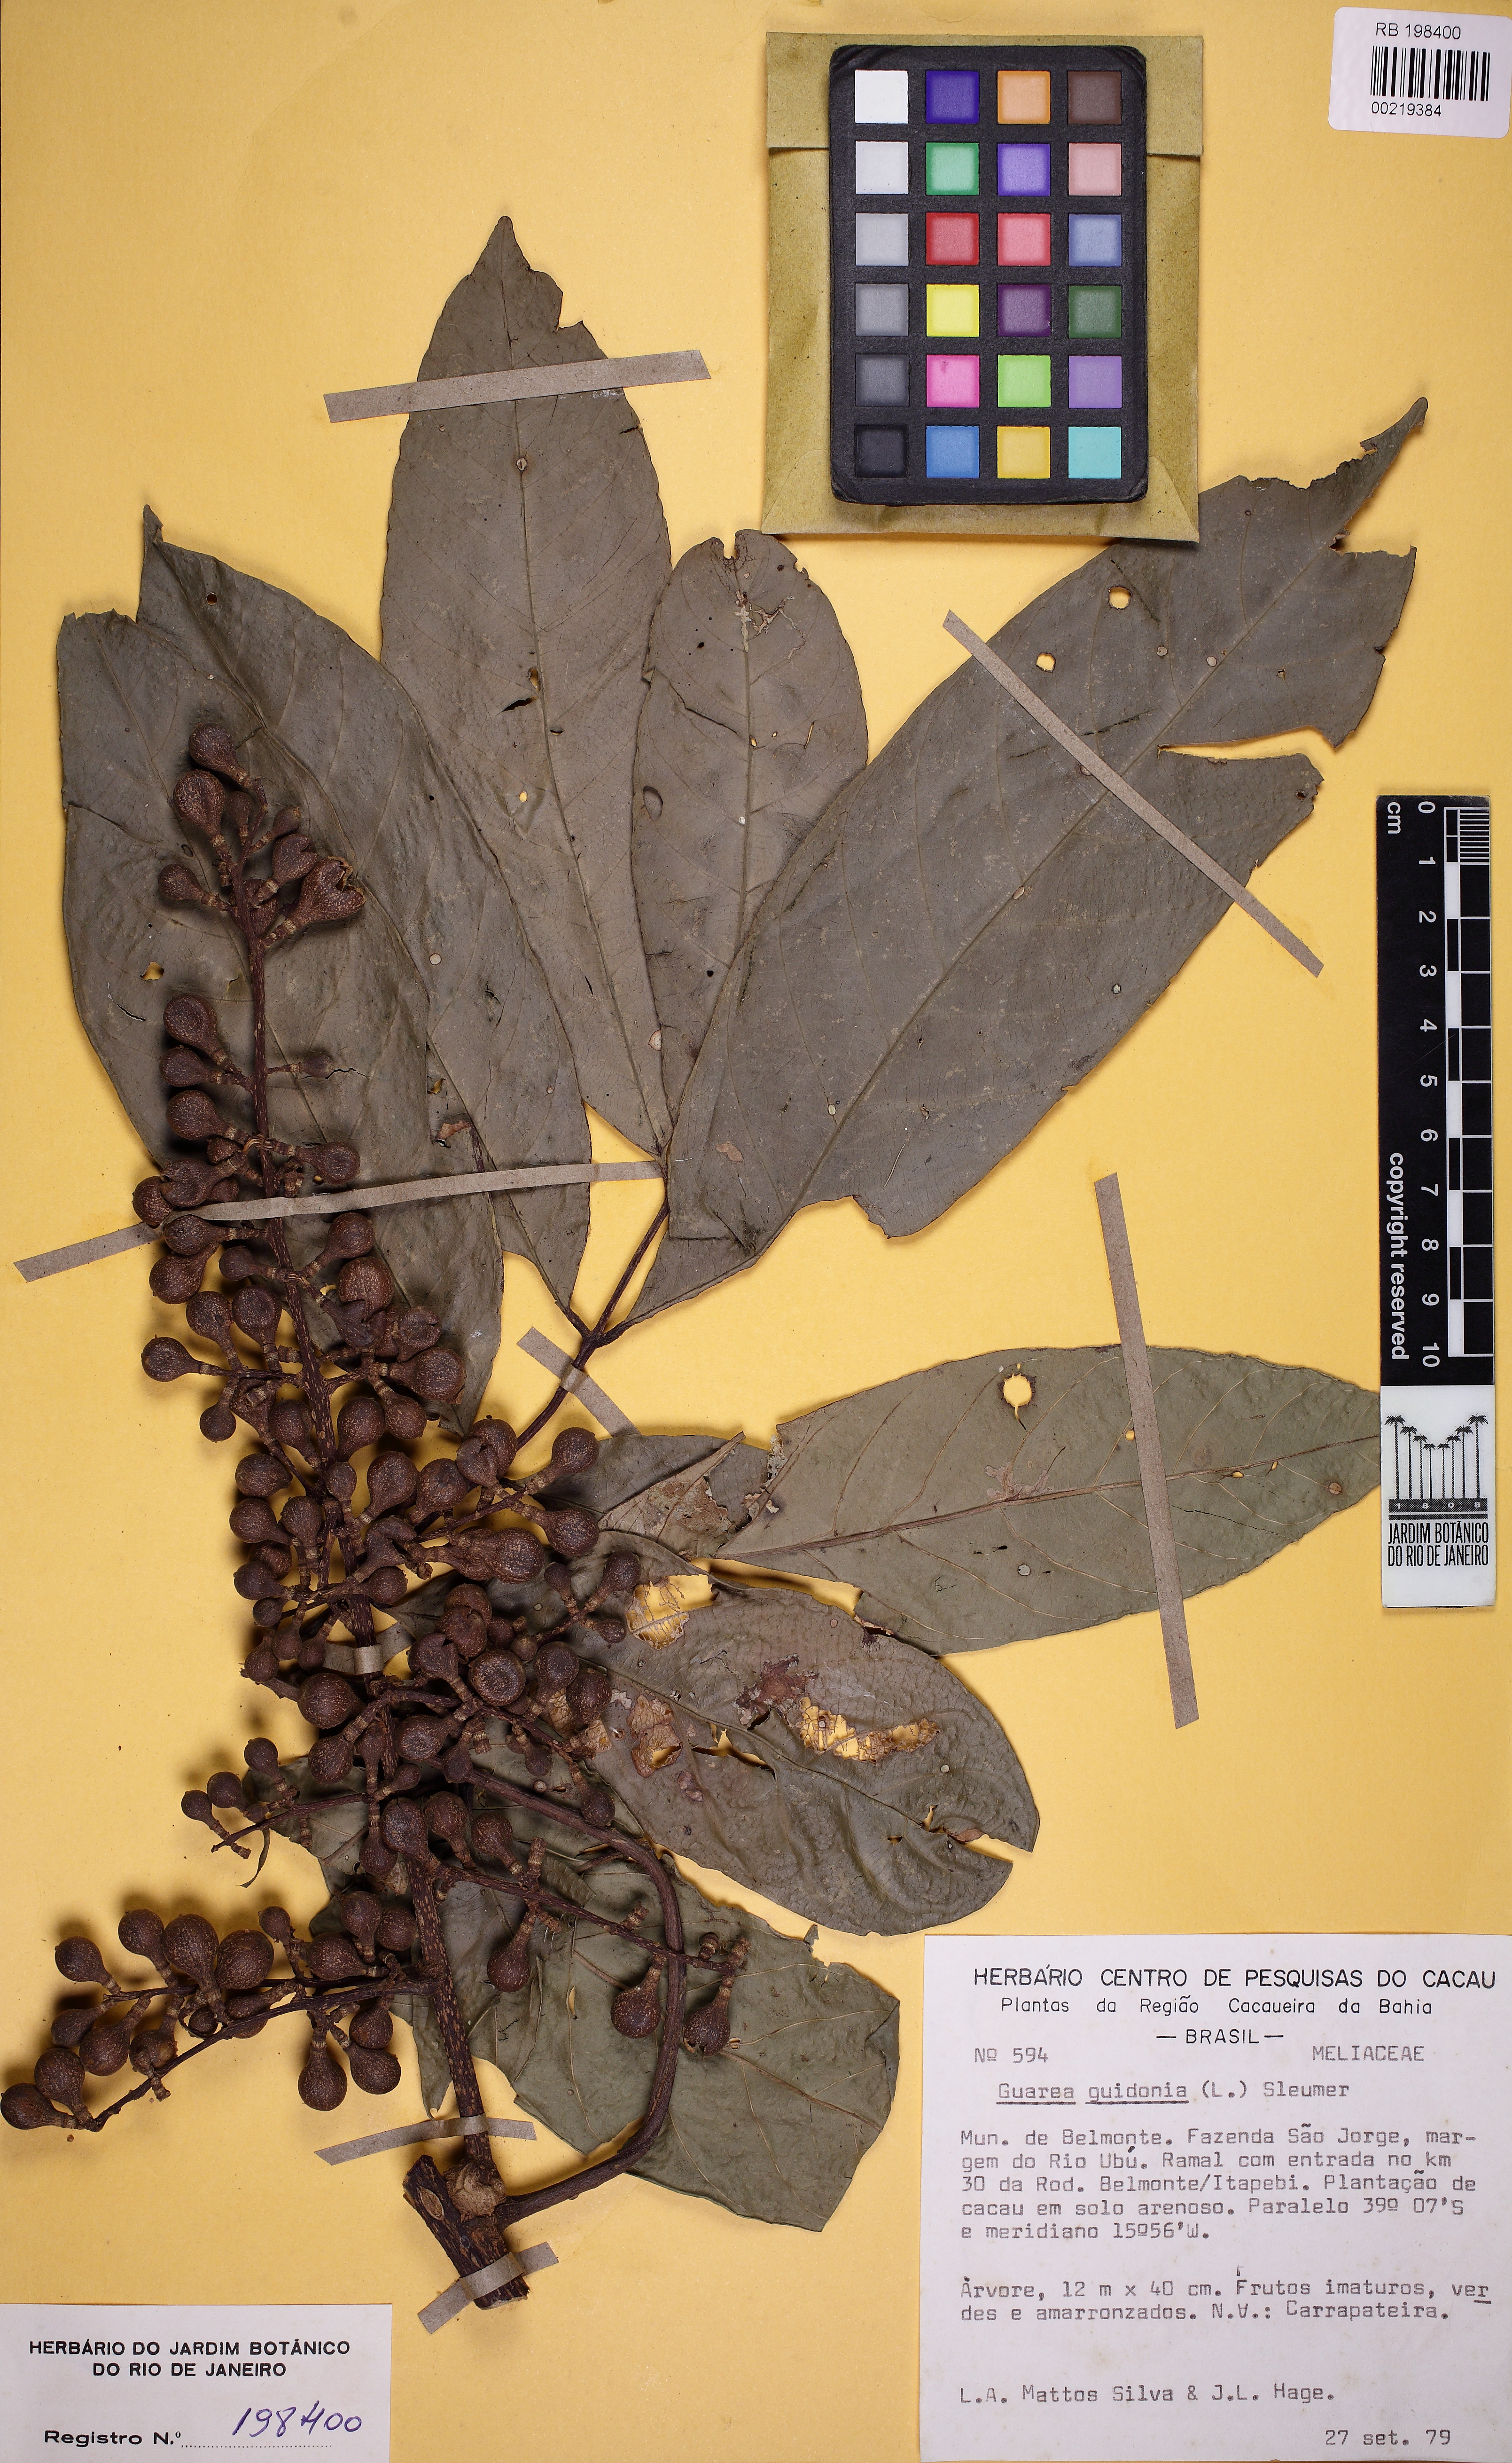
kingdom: Plantae
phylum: Tracheophyta
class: Magnoliopsida
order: Sapindales
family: Meliaceae
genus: Guarea
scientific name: Guarea guidonia
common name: American muskwood
